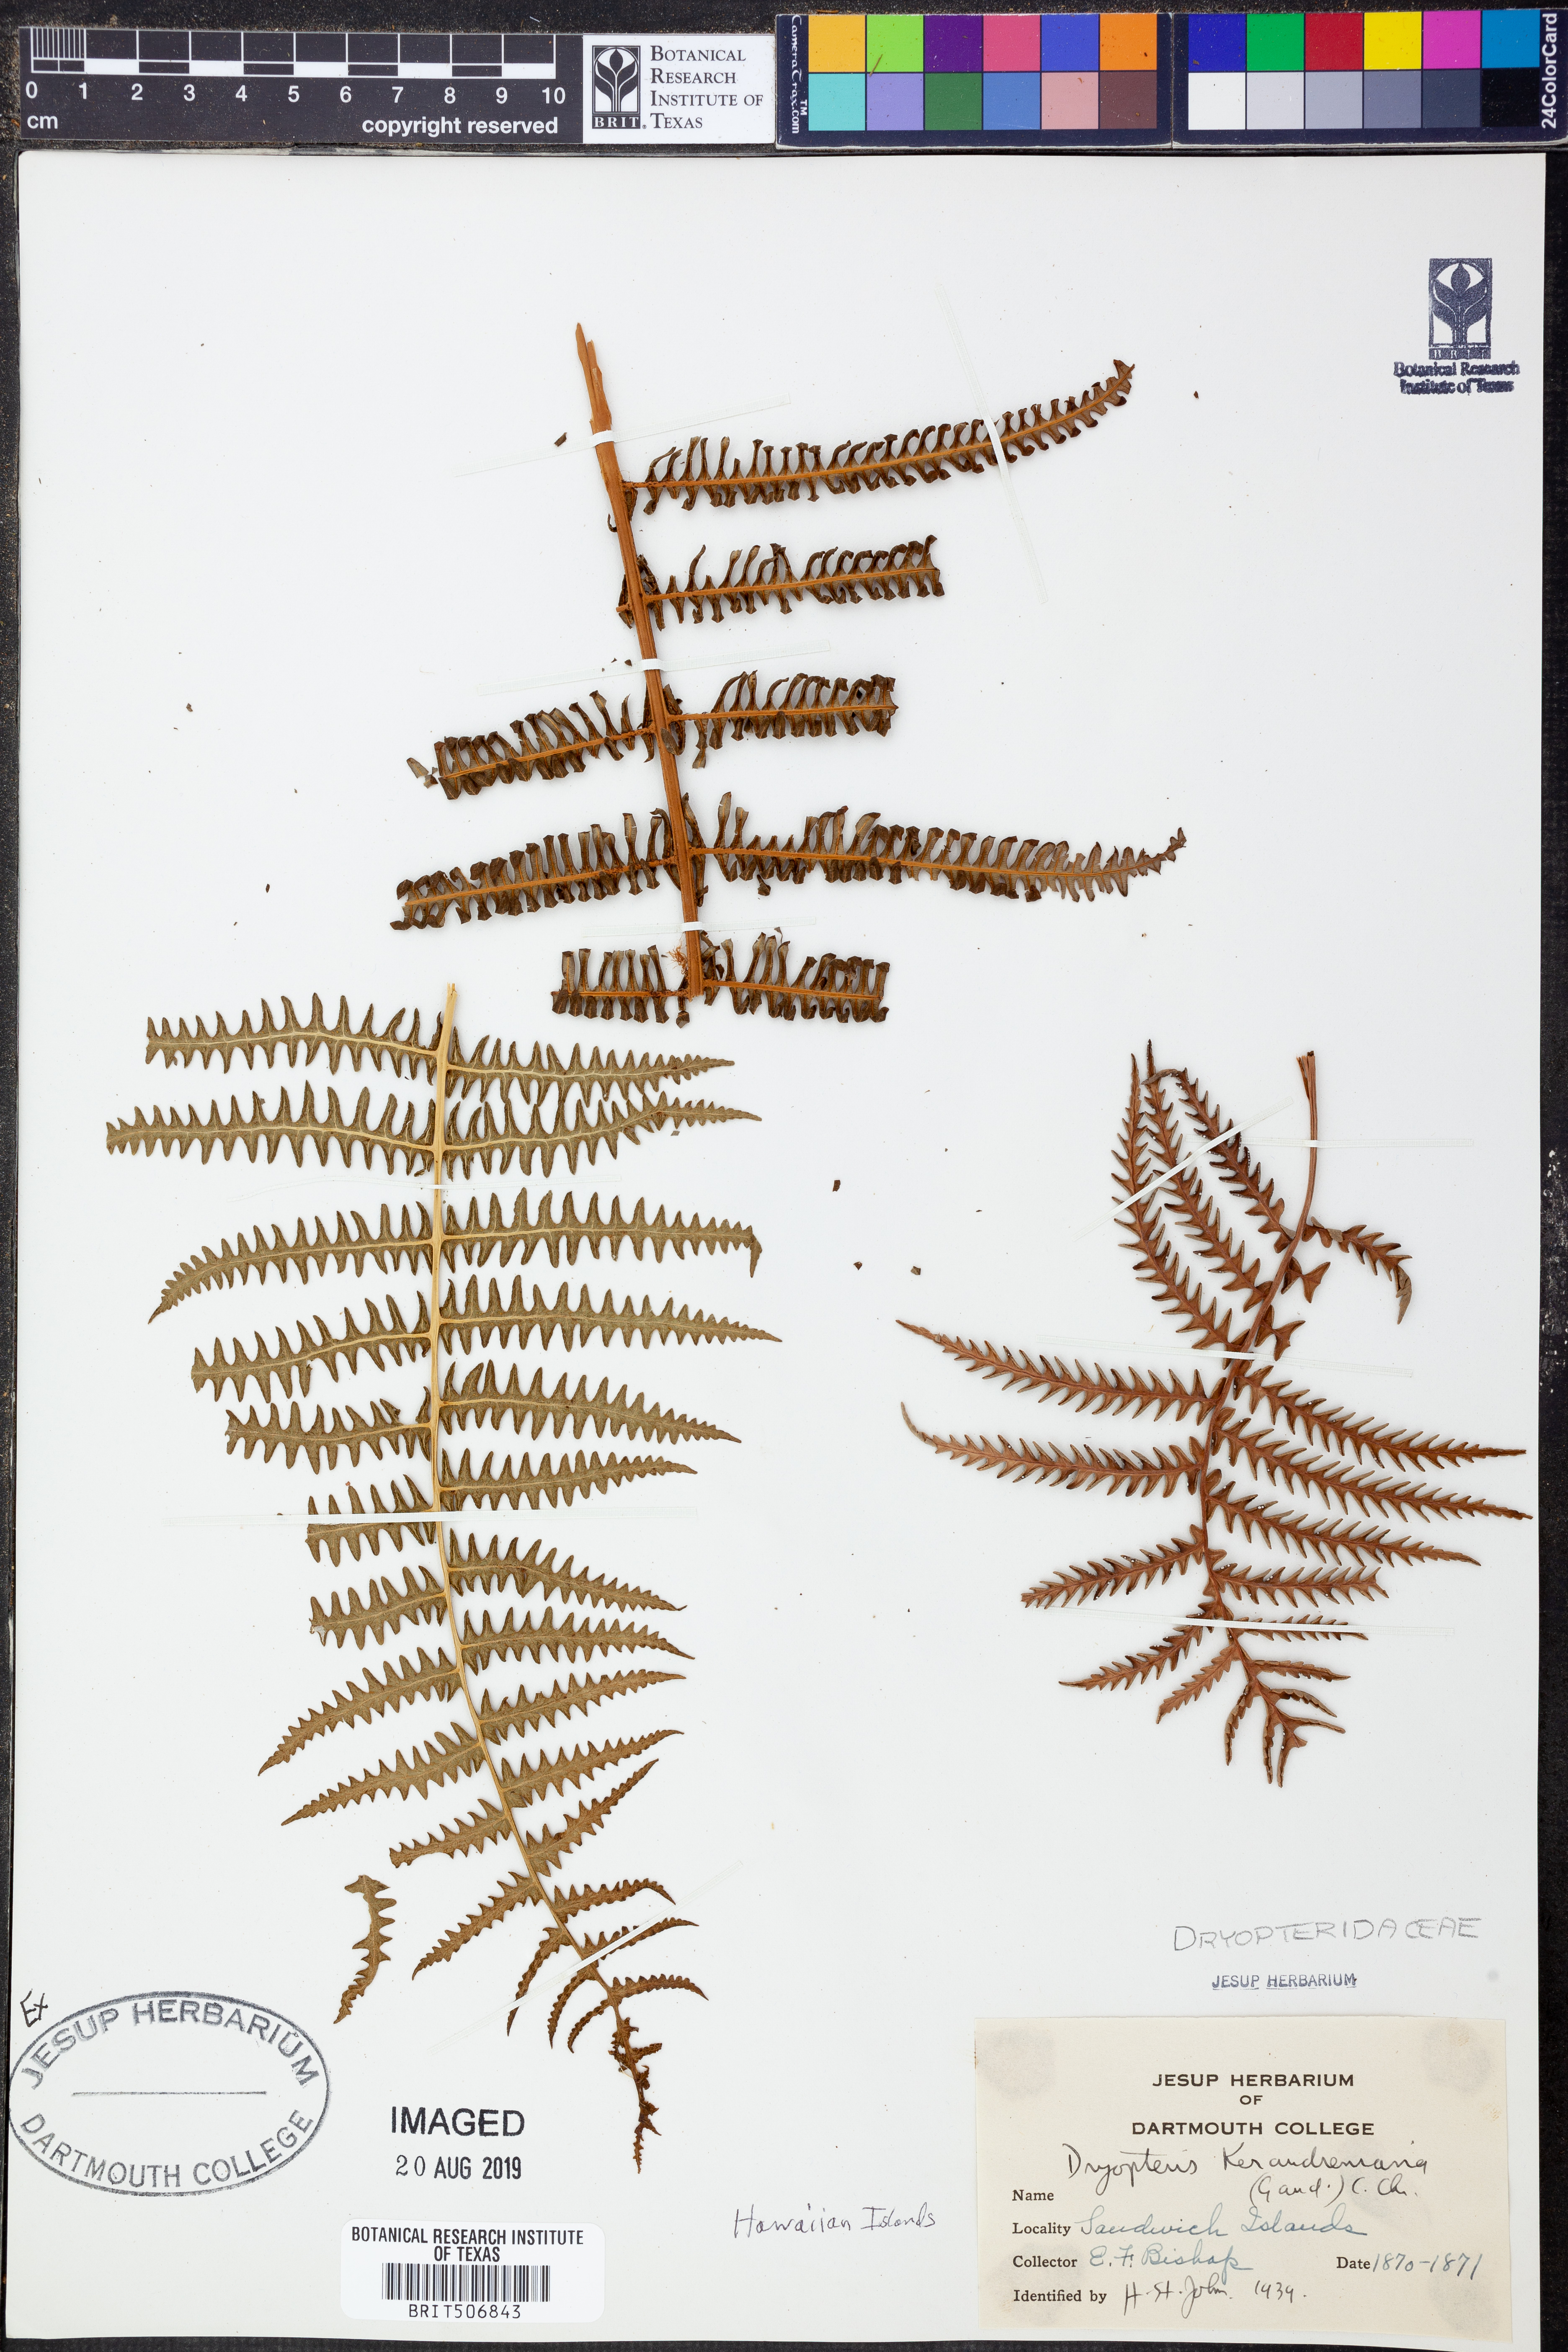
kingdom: Plantae
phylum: Tracheophyta
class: Polypodiopsida
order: Polypodiales
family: Thelypteridaceae
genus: Pseudophegopteris
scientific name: Pseudophegopteris keraudreniana
